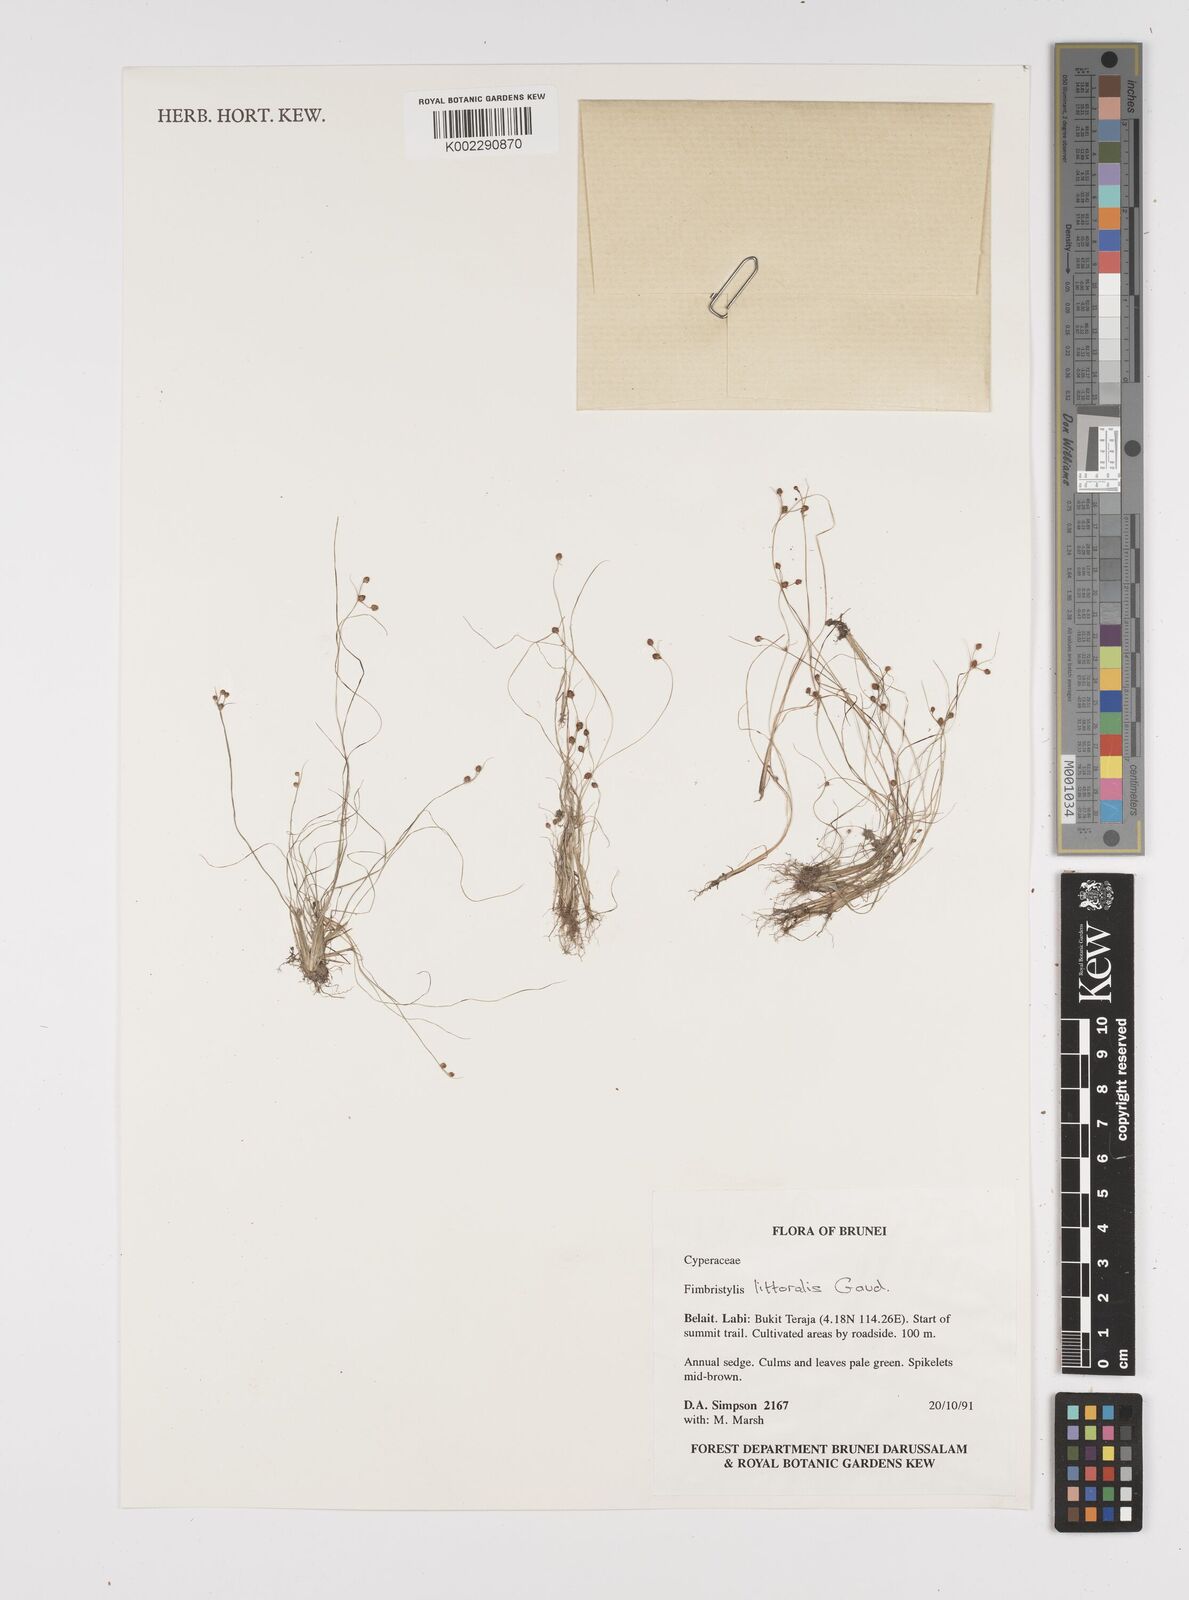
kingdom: Plantae
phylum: Tracheophyta
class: Liliopsida
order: Poales
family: Cyperaceae
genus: Fimbristylis
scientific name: Fimbristylis littoralis
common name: Fimbry
